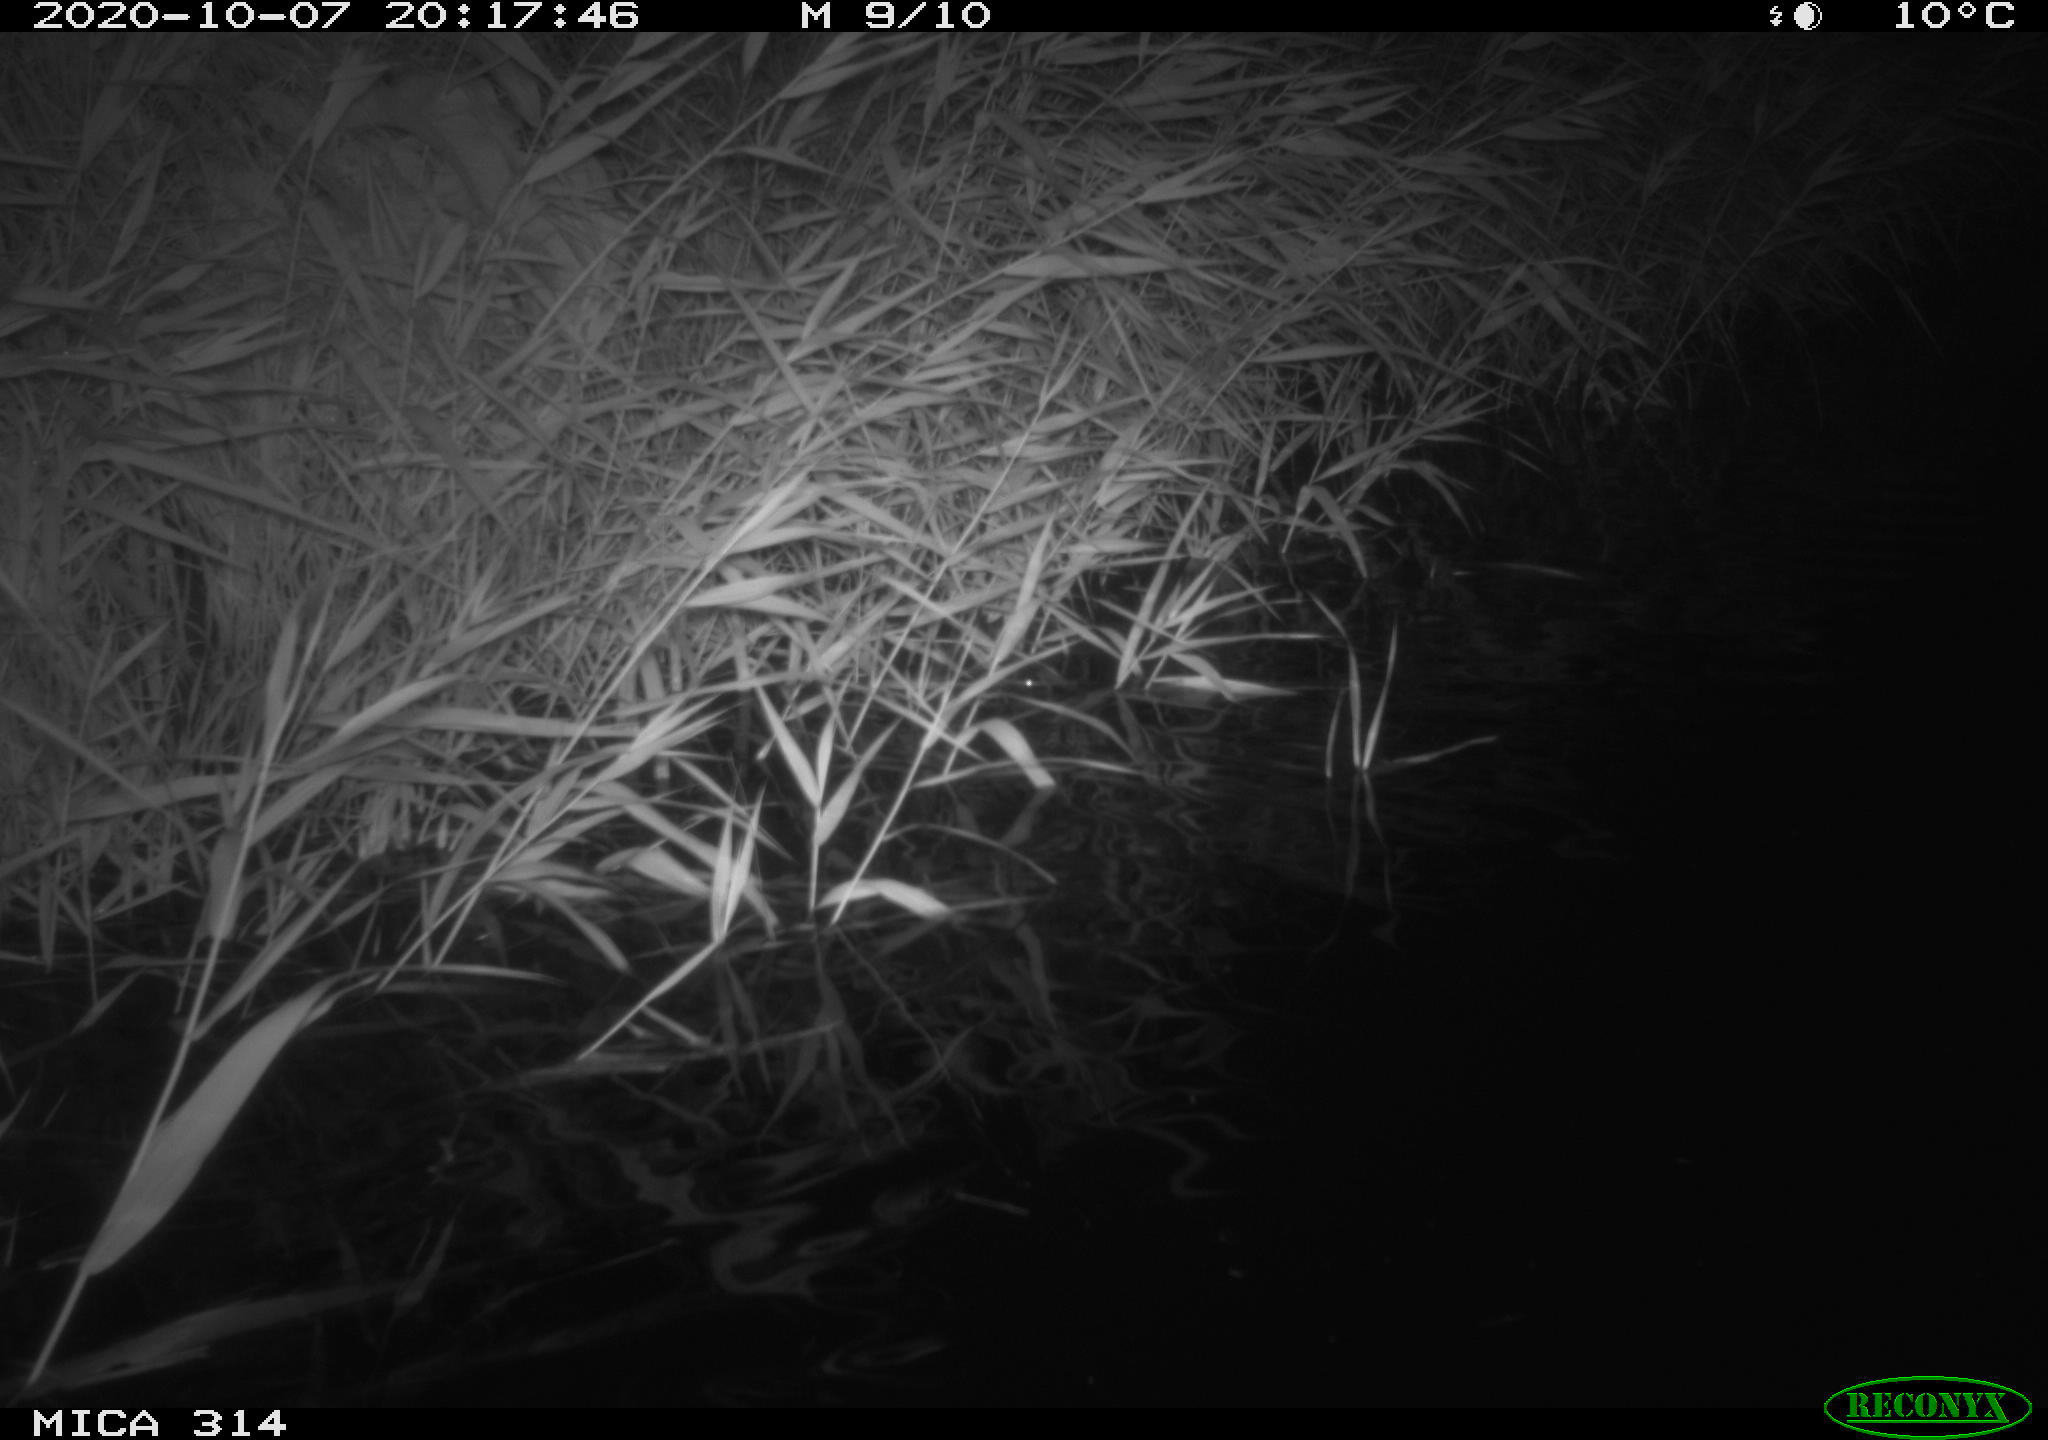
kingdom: Animalia
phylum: Chordata
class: Mammalia
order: Rodentia
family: Cricetidae
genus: Ondatra
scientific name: Ondatra zibethicus
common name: Muskrat
